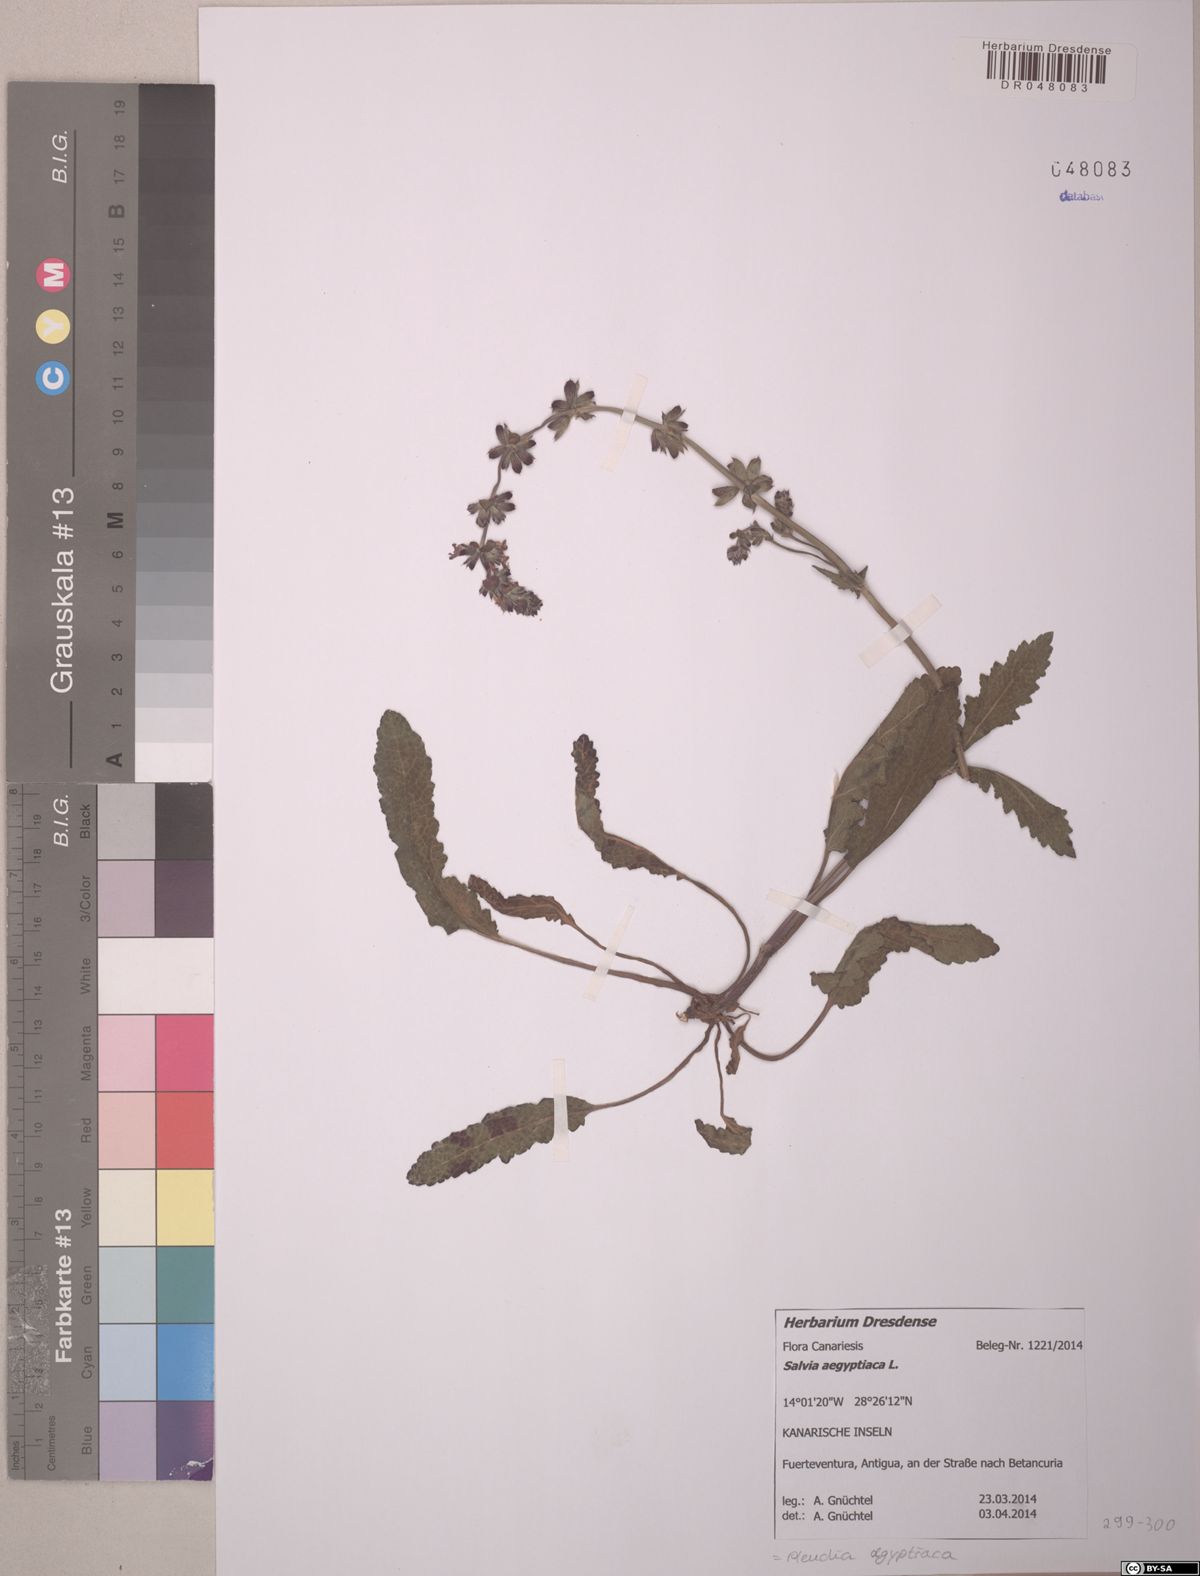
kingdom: Plantae
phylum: Tracheophyta
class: Magnoliopsida
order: Lamiales
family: Lamiaceae
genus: Salvia
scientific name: Salvia aegyptiaca
